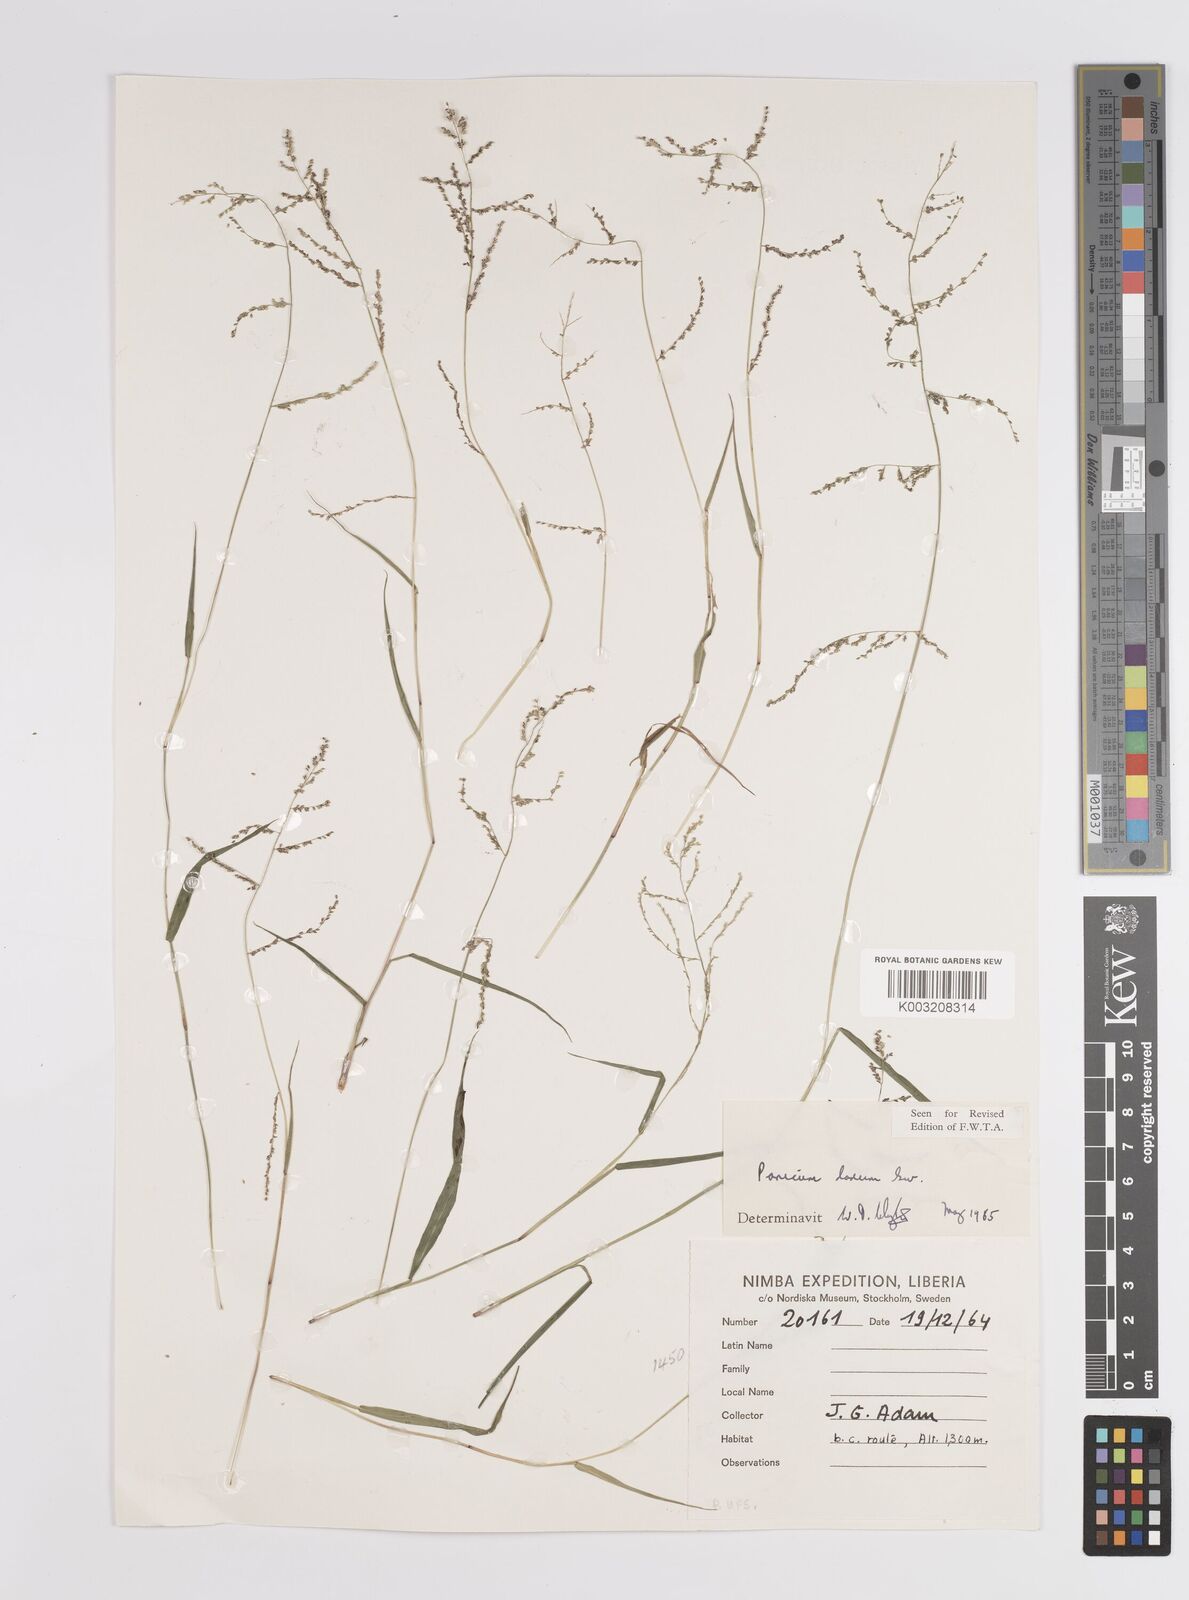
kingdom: Plantae
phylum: Tracheophyta
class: Liliopsida
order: Poales
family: Poaceae
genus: Steinchisma
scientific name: Steinchisma laxum
